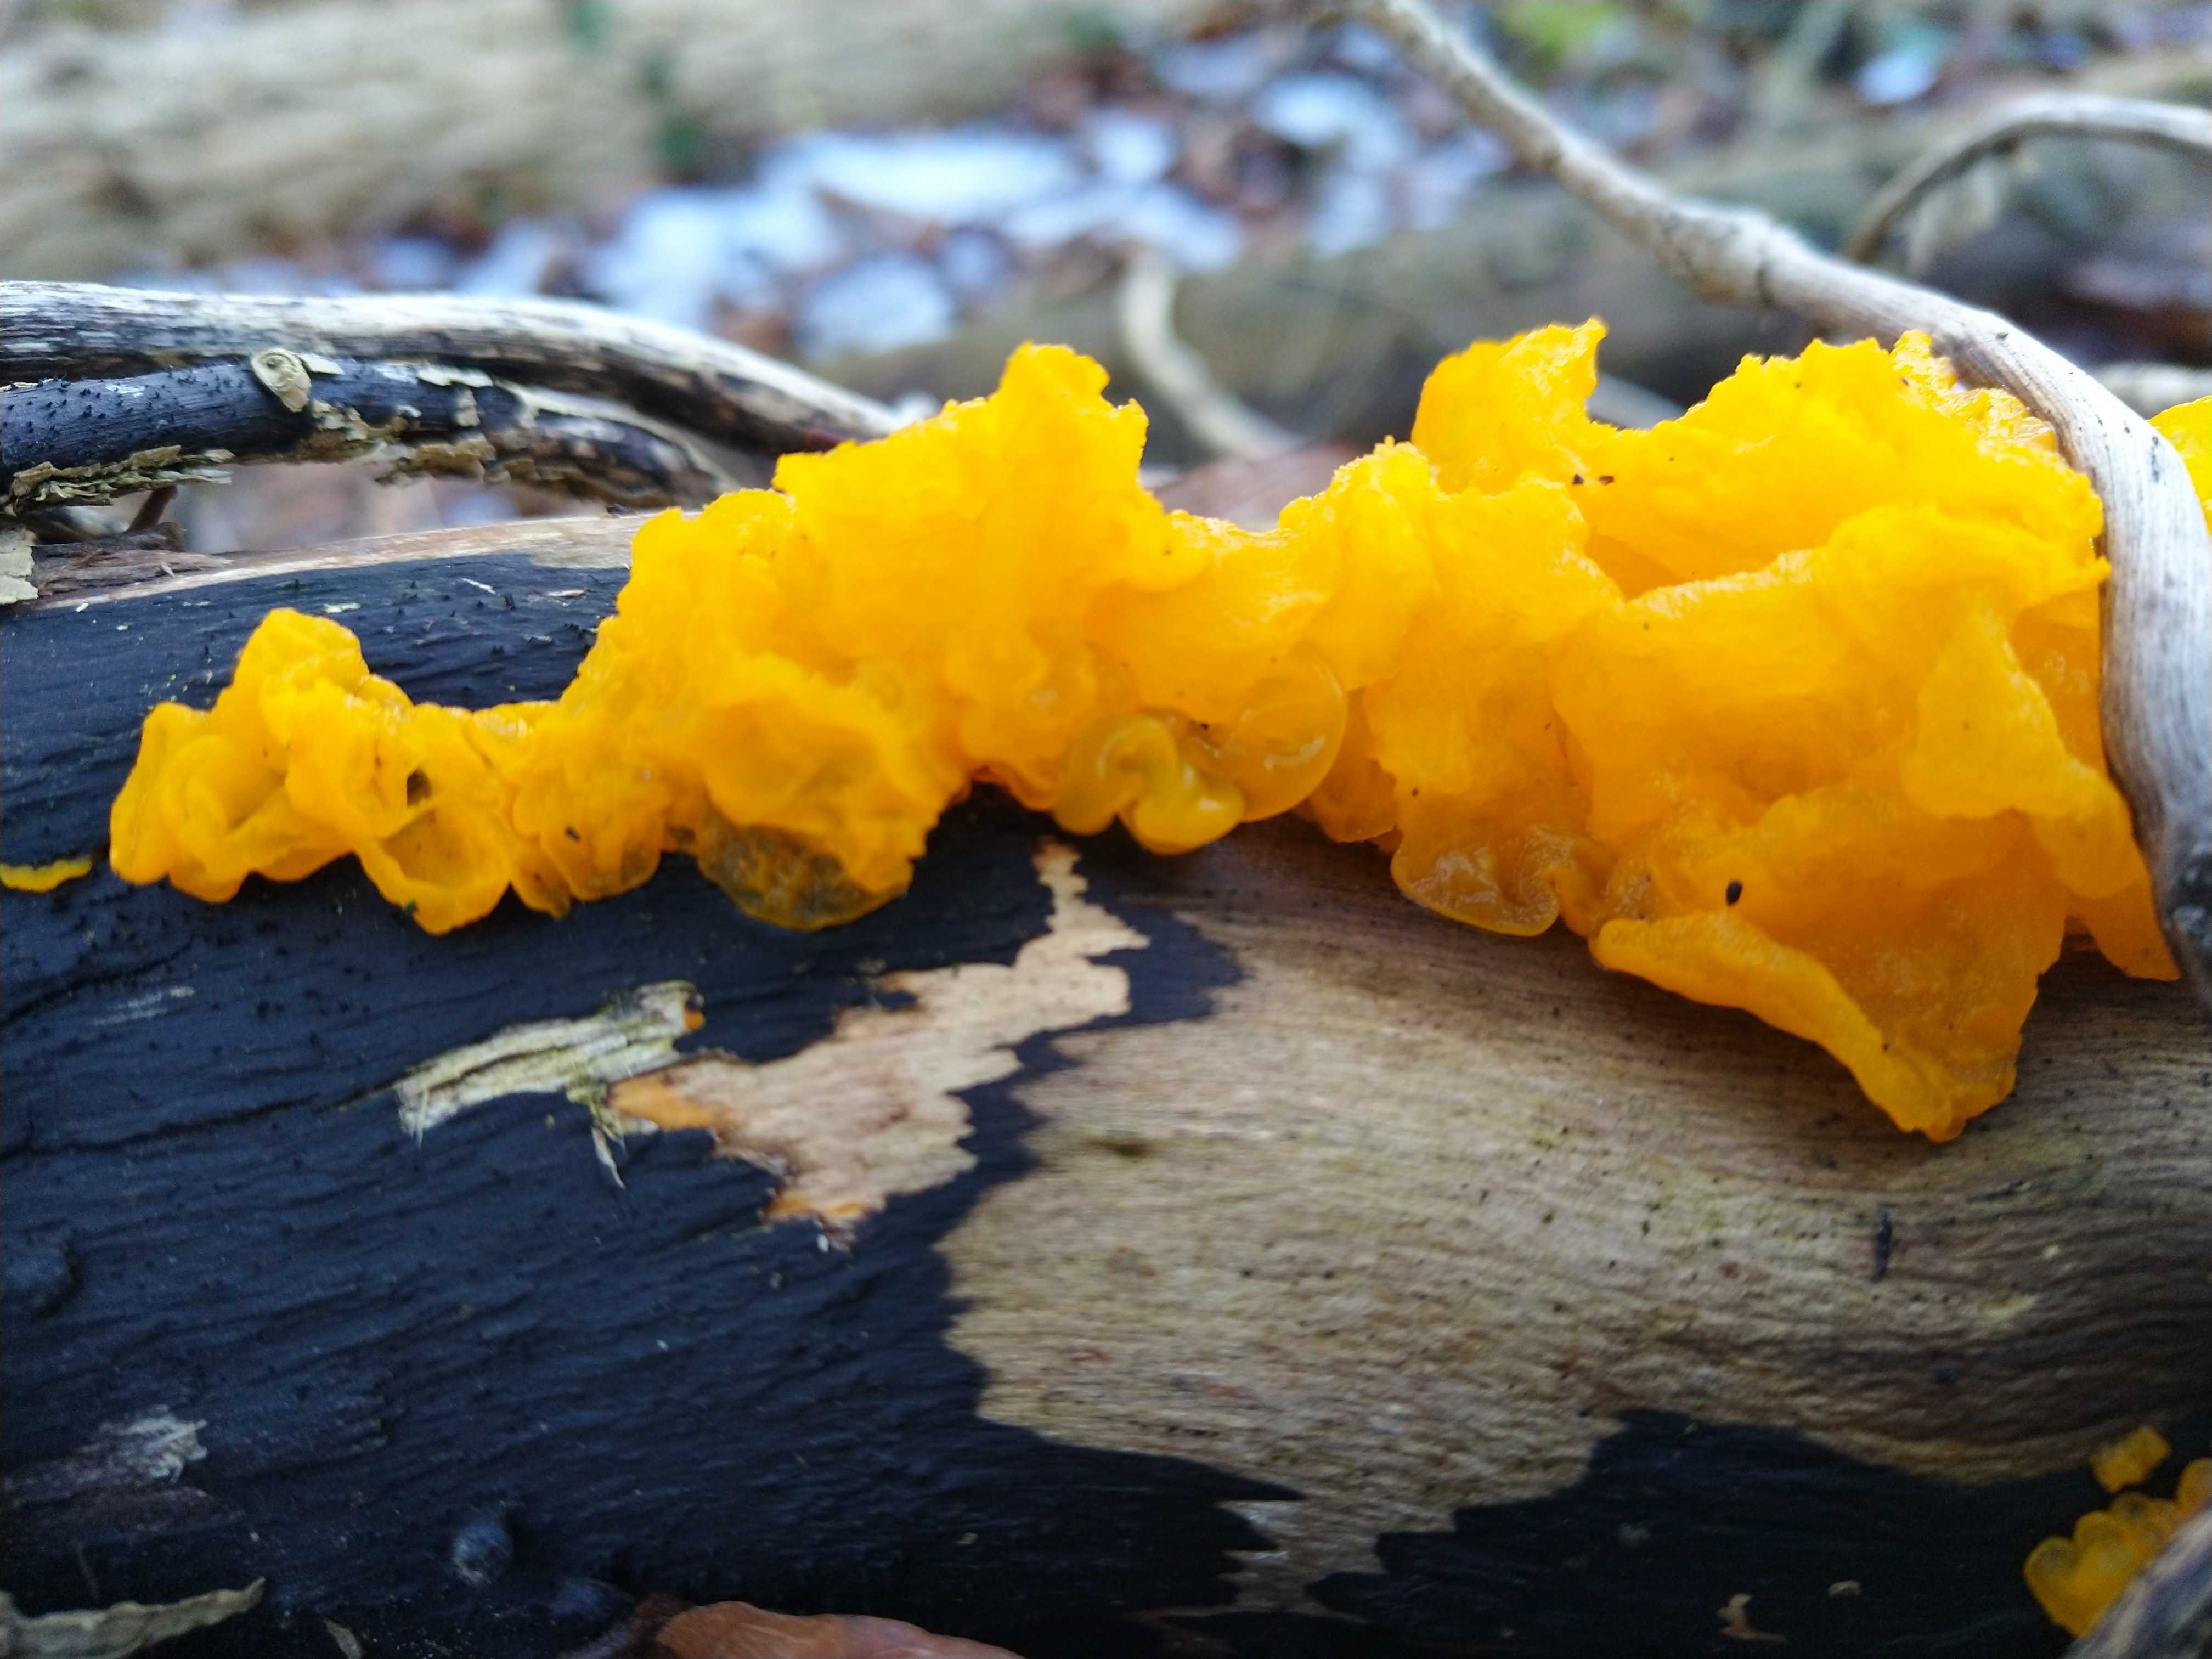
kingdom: Fungi
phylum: Basidiomycota
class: Tremellomycetes
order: Tremellales
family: Tremellaceae
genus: Tremella
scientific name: Tremella mesenterica
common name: gul bævresvamp
